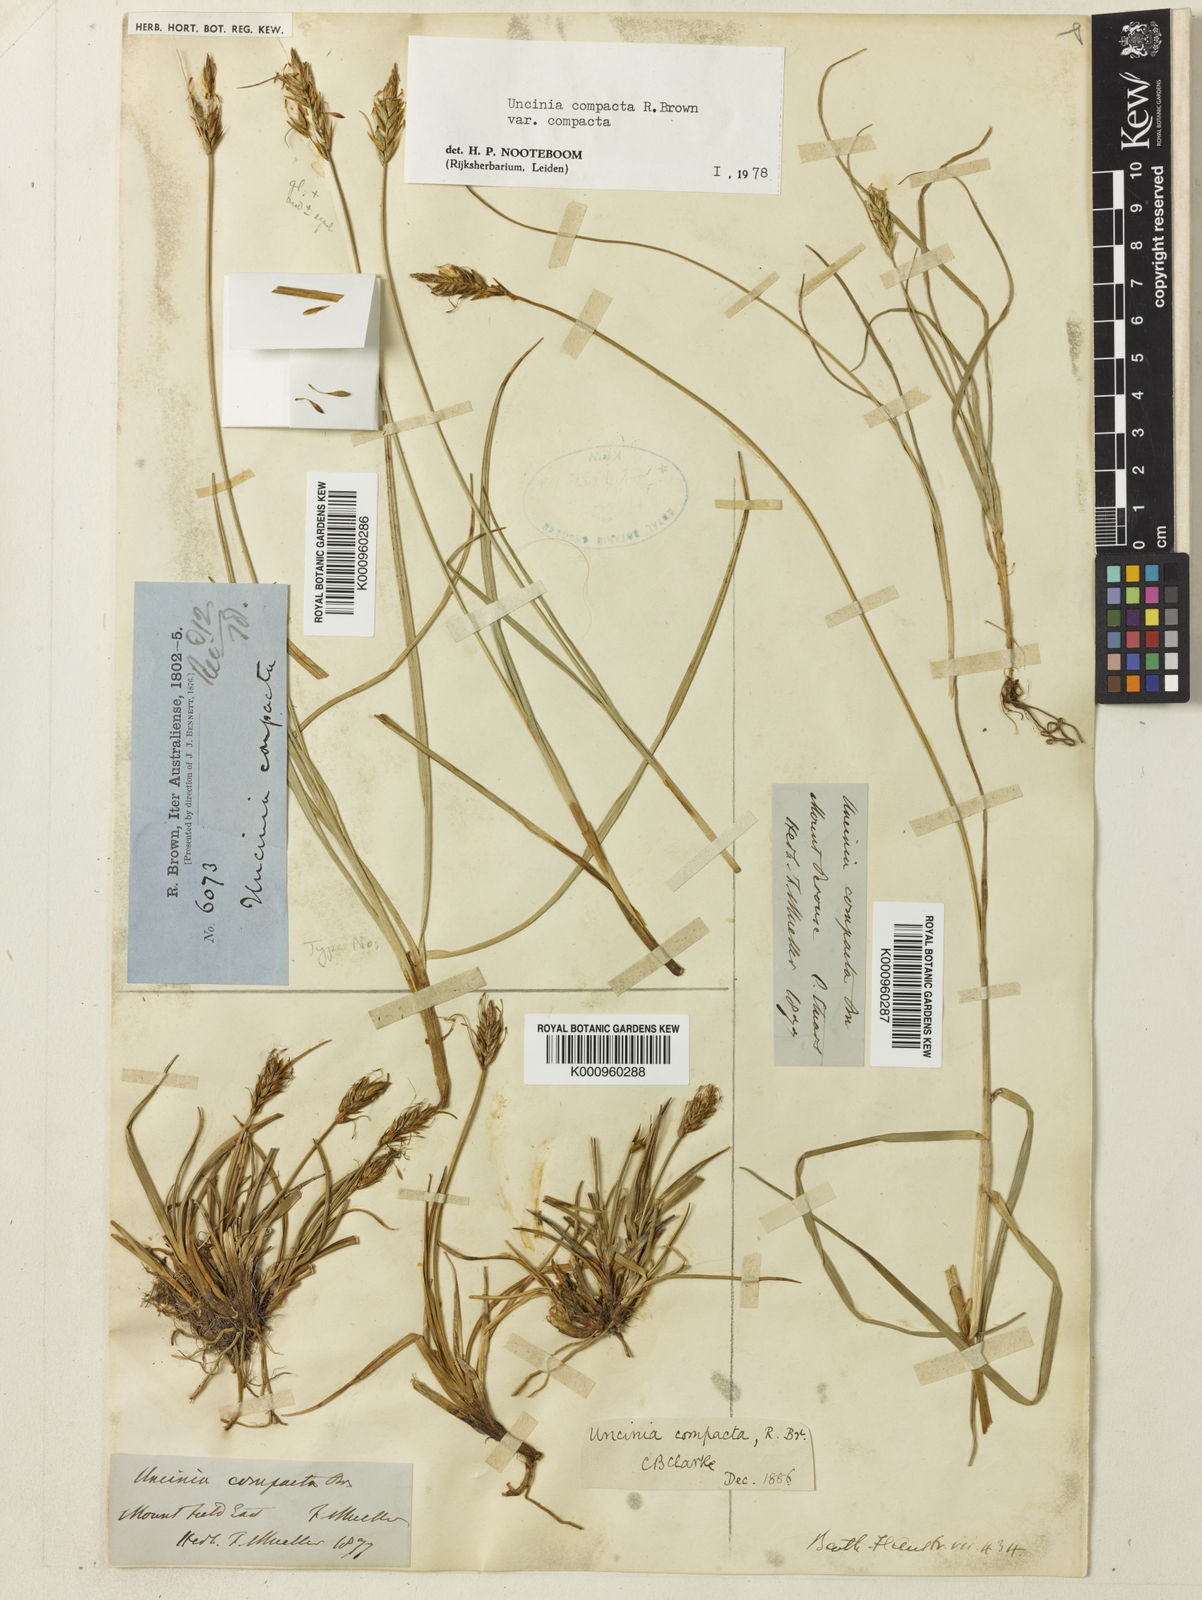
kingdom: Plantae
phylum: Tracheophyta
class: Liliopsida
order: Poales
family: Cyperaceae
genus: Carex
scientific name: Carex austrocompacta
